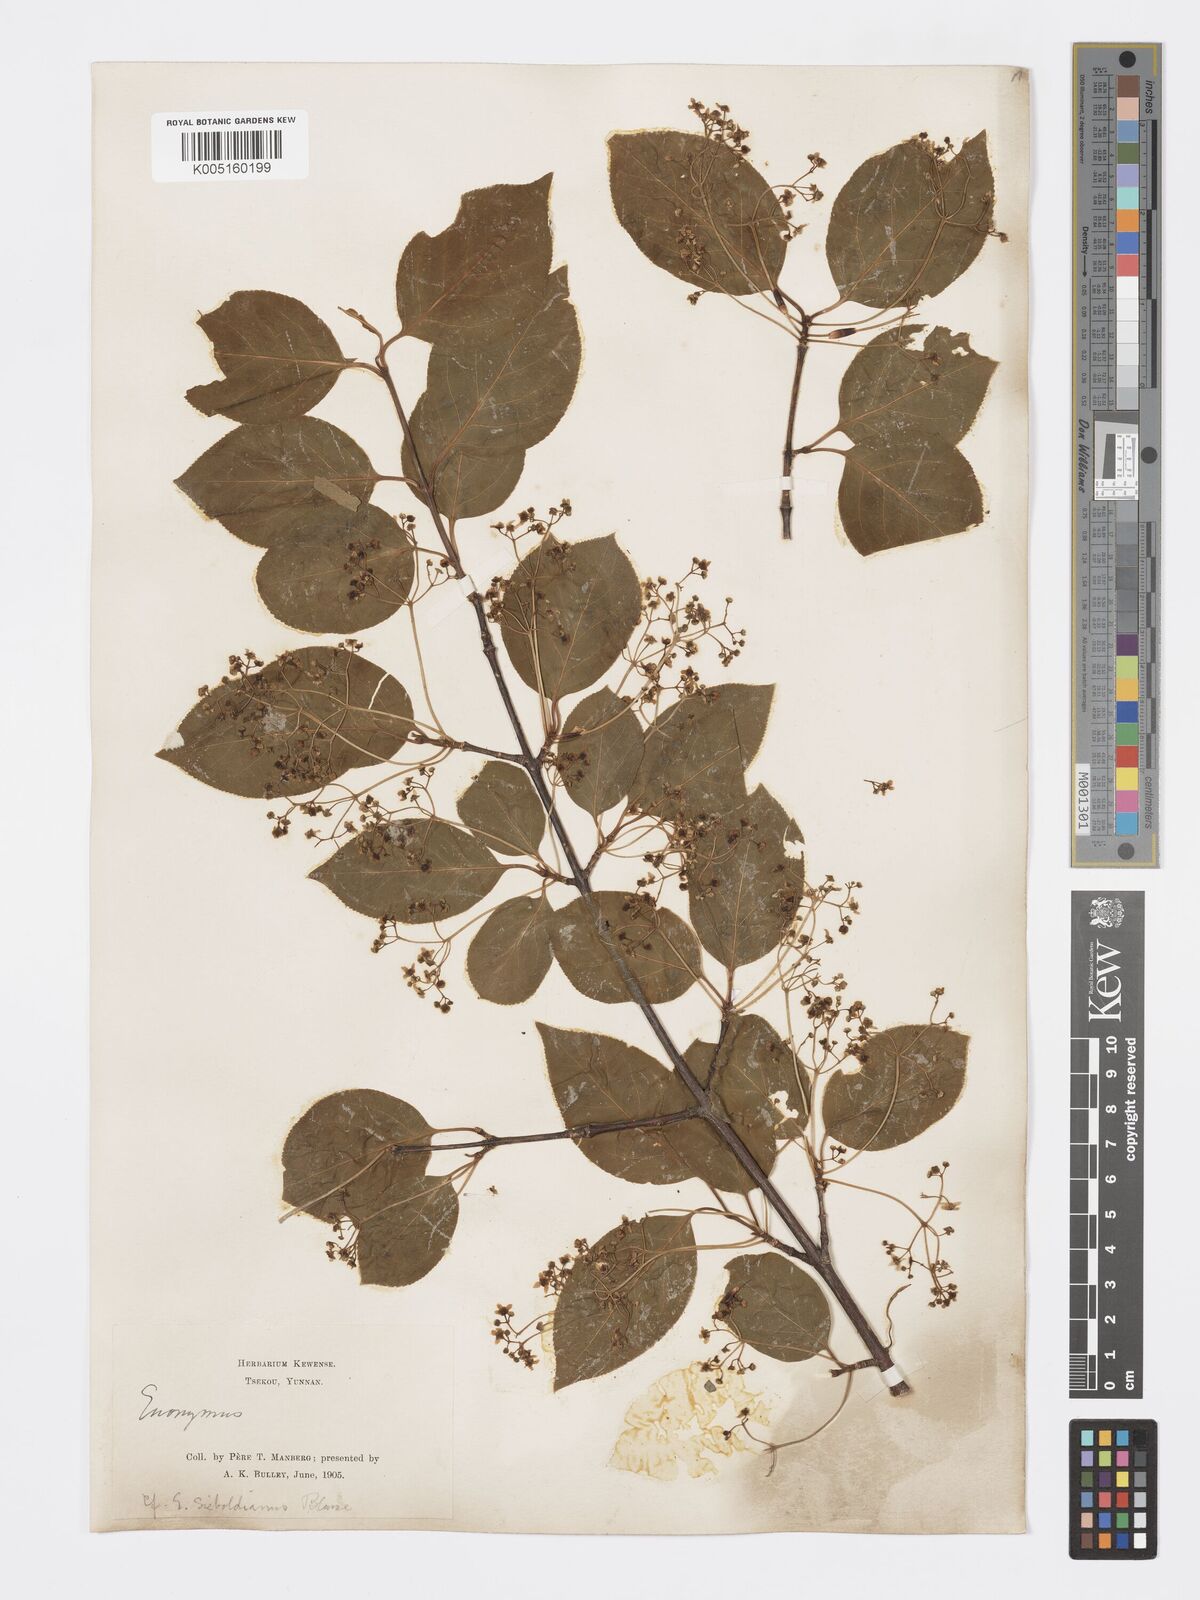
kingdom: Plantae
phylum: Tracheophyta
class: Magnoliopsida
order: Celastrales
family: Celastraceae
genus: Euonymus
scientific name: Euonymus sanguineus
